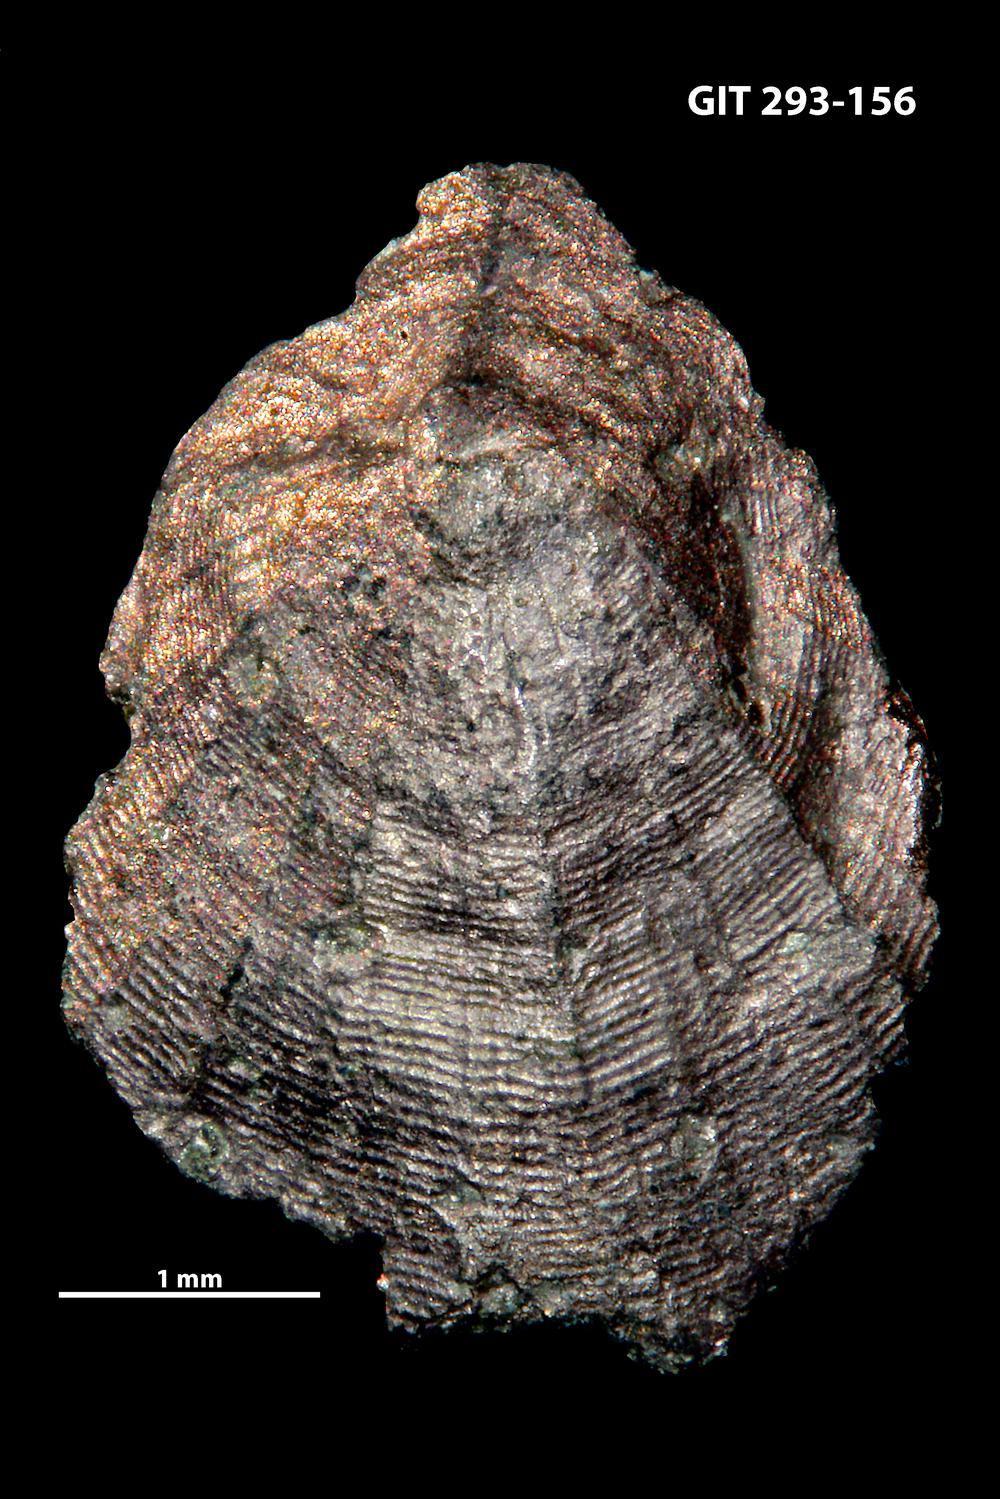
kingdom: Animalia
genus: Estoniadiscus
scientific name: Estoniadiscus
